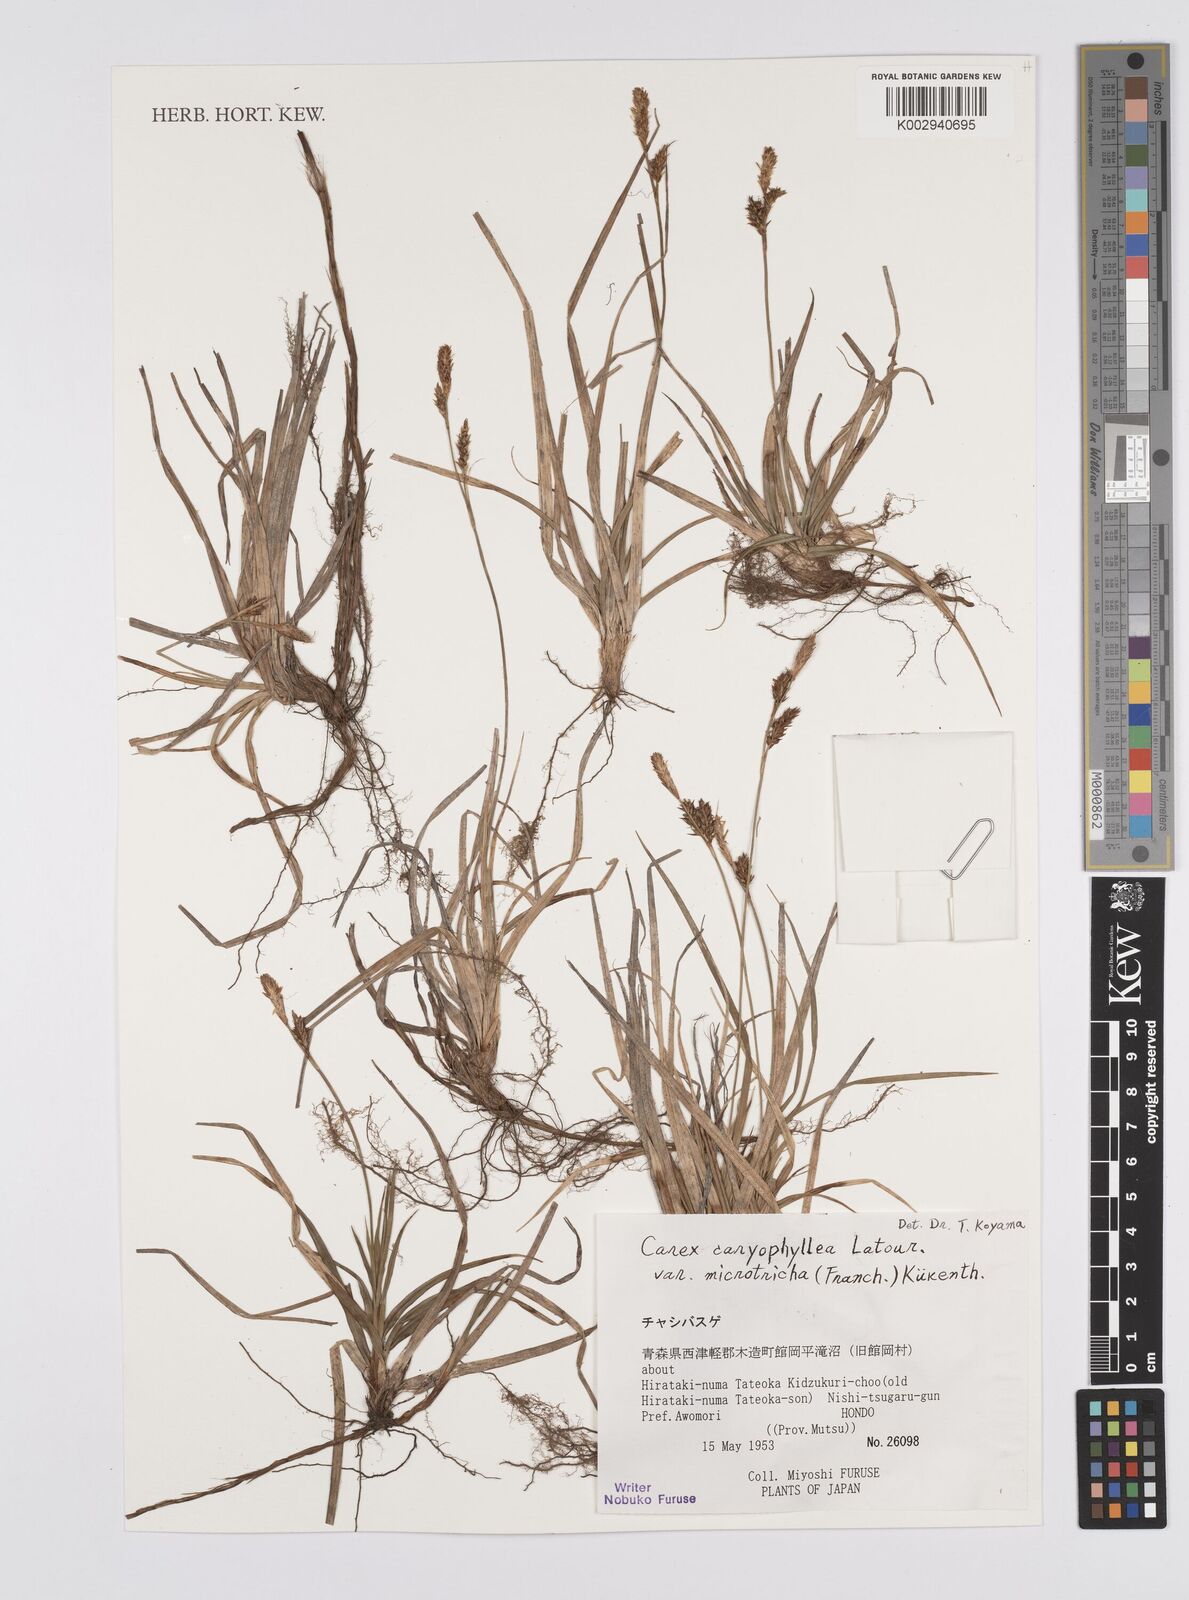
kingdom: Plantae
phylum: Tracheophyta
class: Liliopsida
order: Poales
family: Cyperaceae
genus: Carex
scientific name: Carex caryophyllea
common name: Spring sedge
